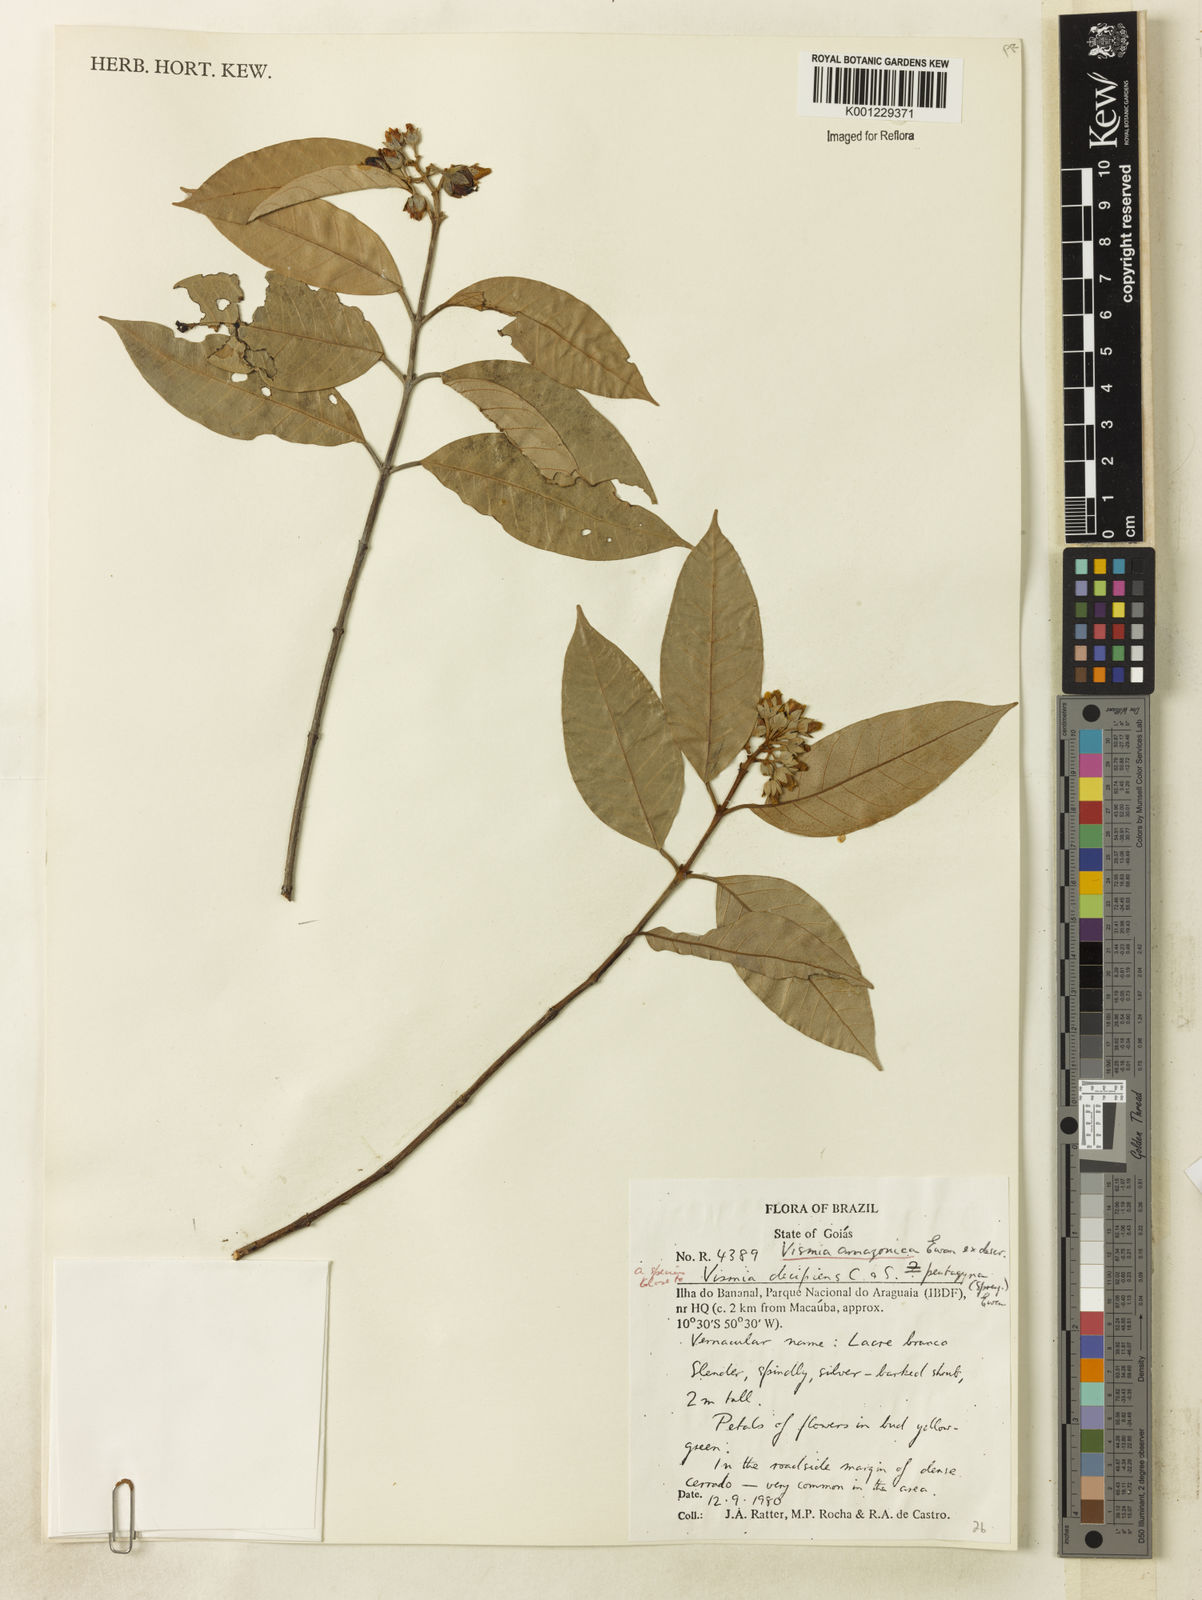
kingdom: Plantae
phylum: Tracheophyta
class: Magnoliopsida
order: Malpighiales
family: Hypericaceae
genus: Vismia
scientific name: Vismia gracilis
